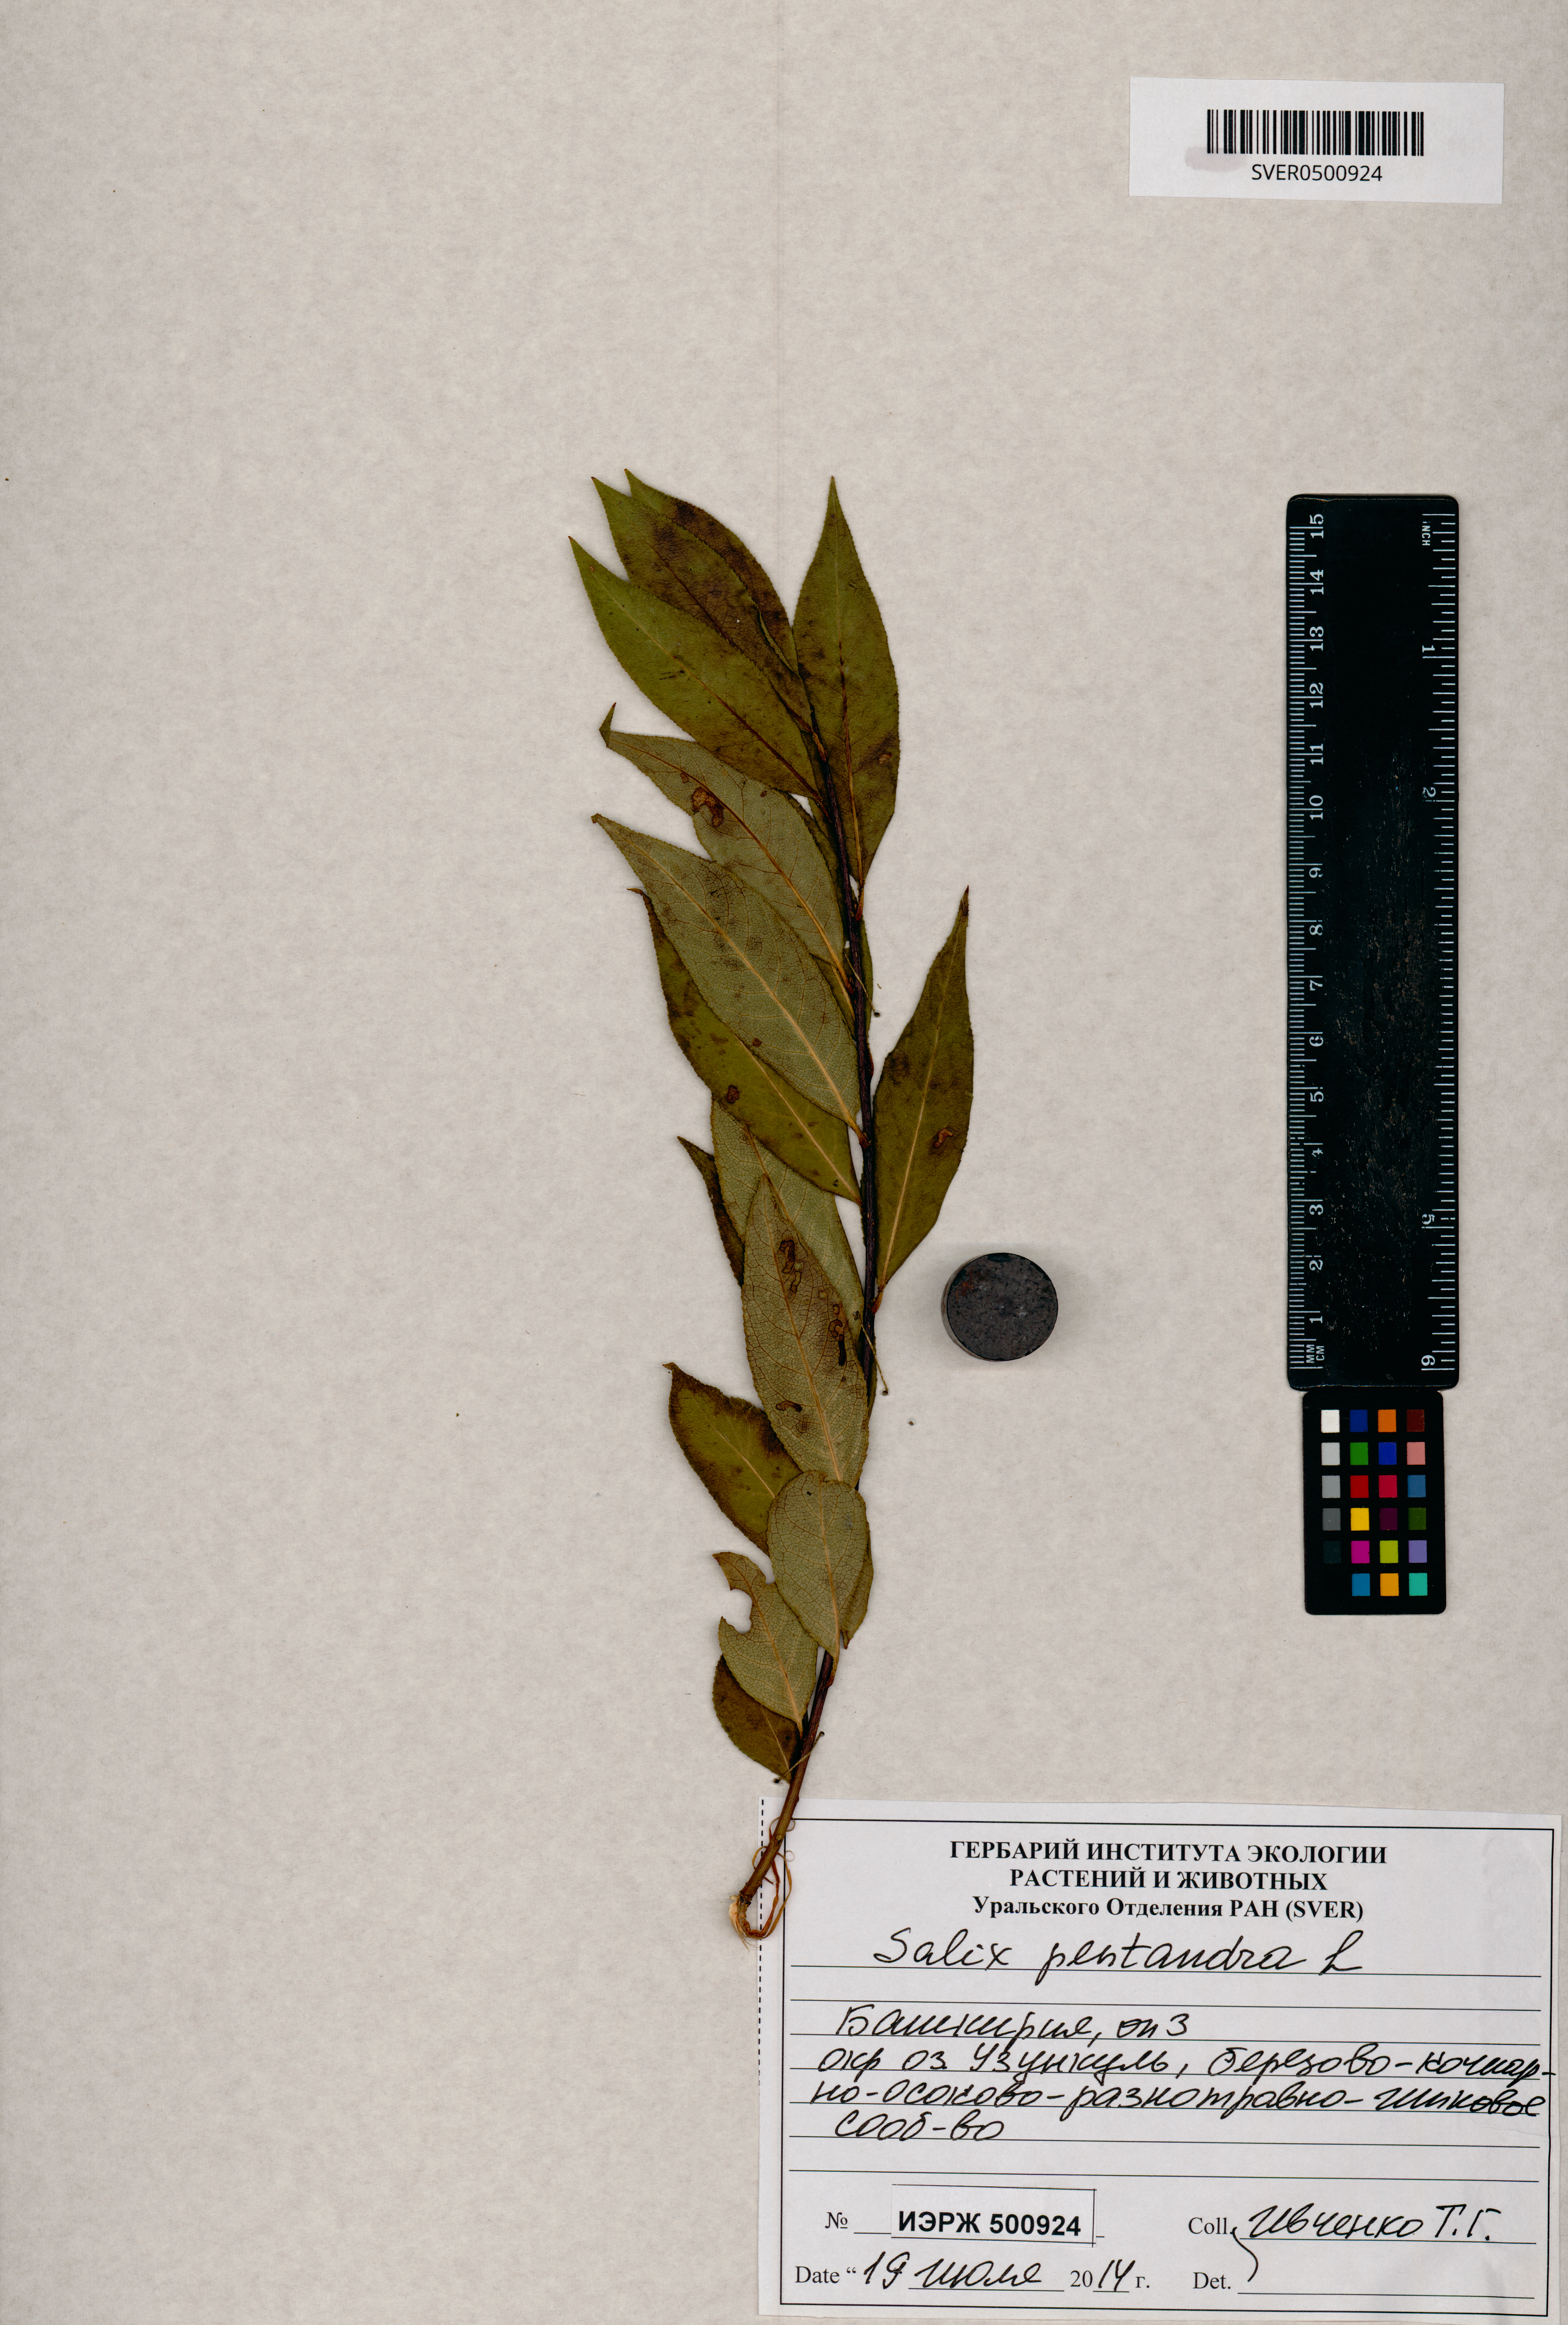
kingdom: Plantae
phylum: Tracheophyta
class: Magnoliopsida
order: Malpighiales
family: Salicaceae
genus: Salix
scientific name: Salix pentandra
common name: Bay willow
